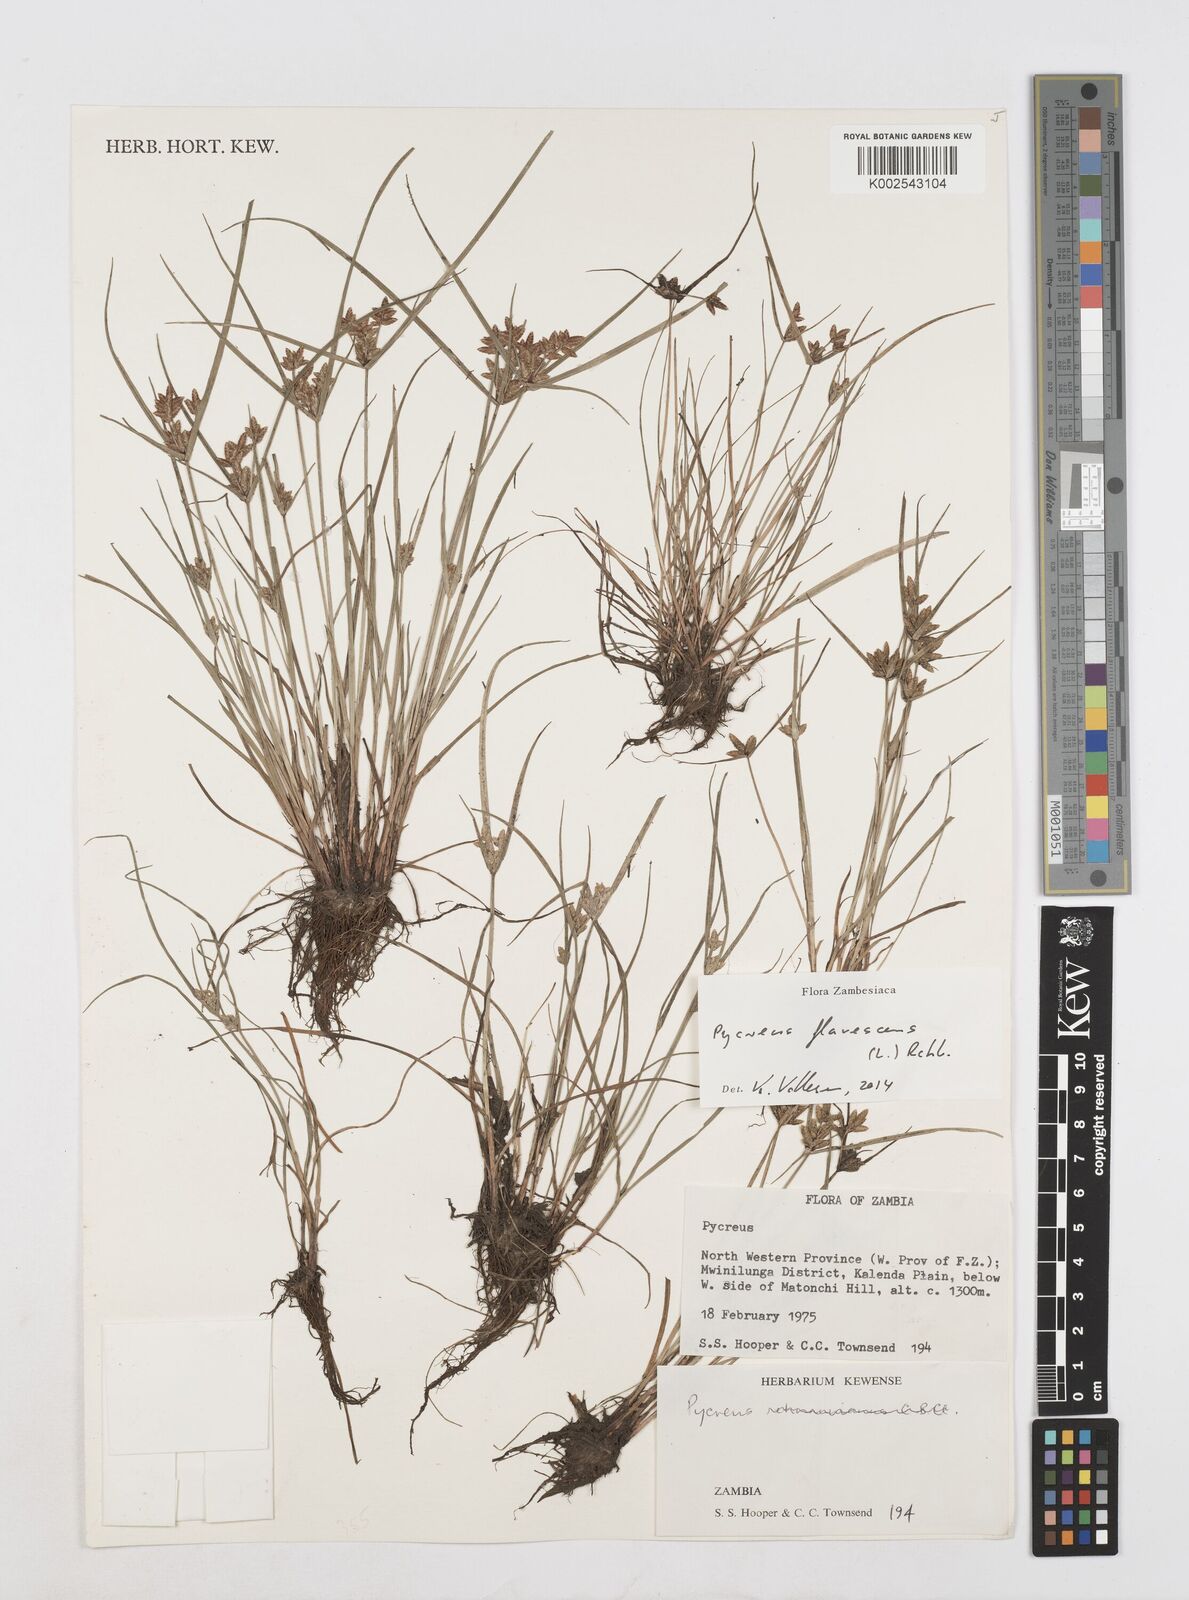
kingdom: Plantae
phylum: Tracheophyta
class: Liliopsida
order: Poales
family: Cyperaceae
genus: Cyperus
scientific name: Cyperus flavescens
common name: Yellow galingale
